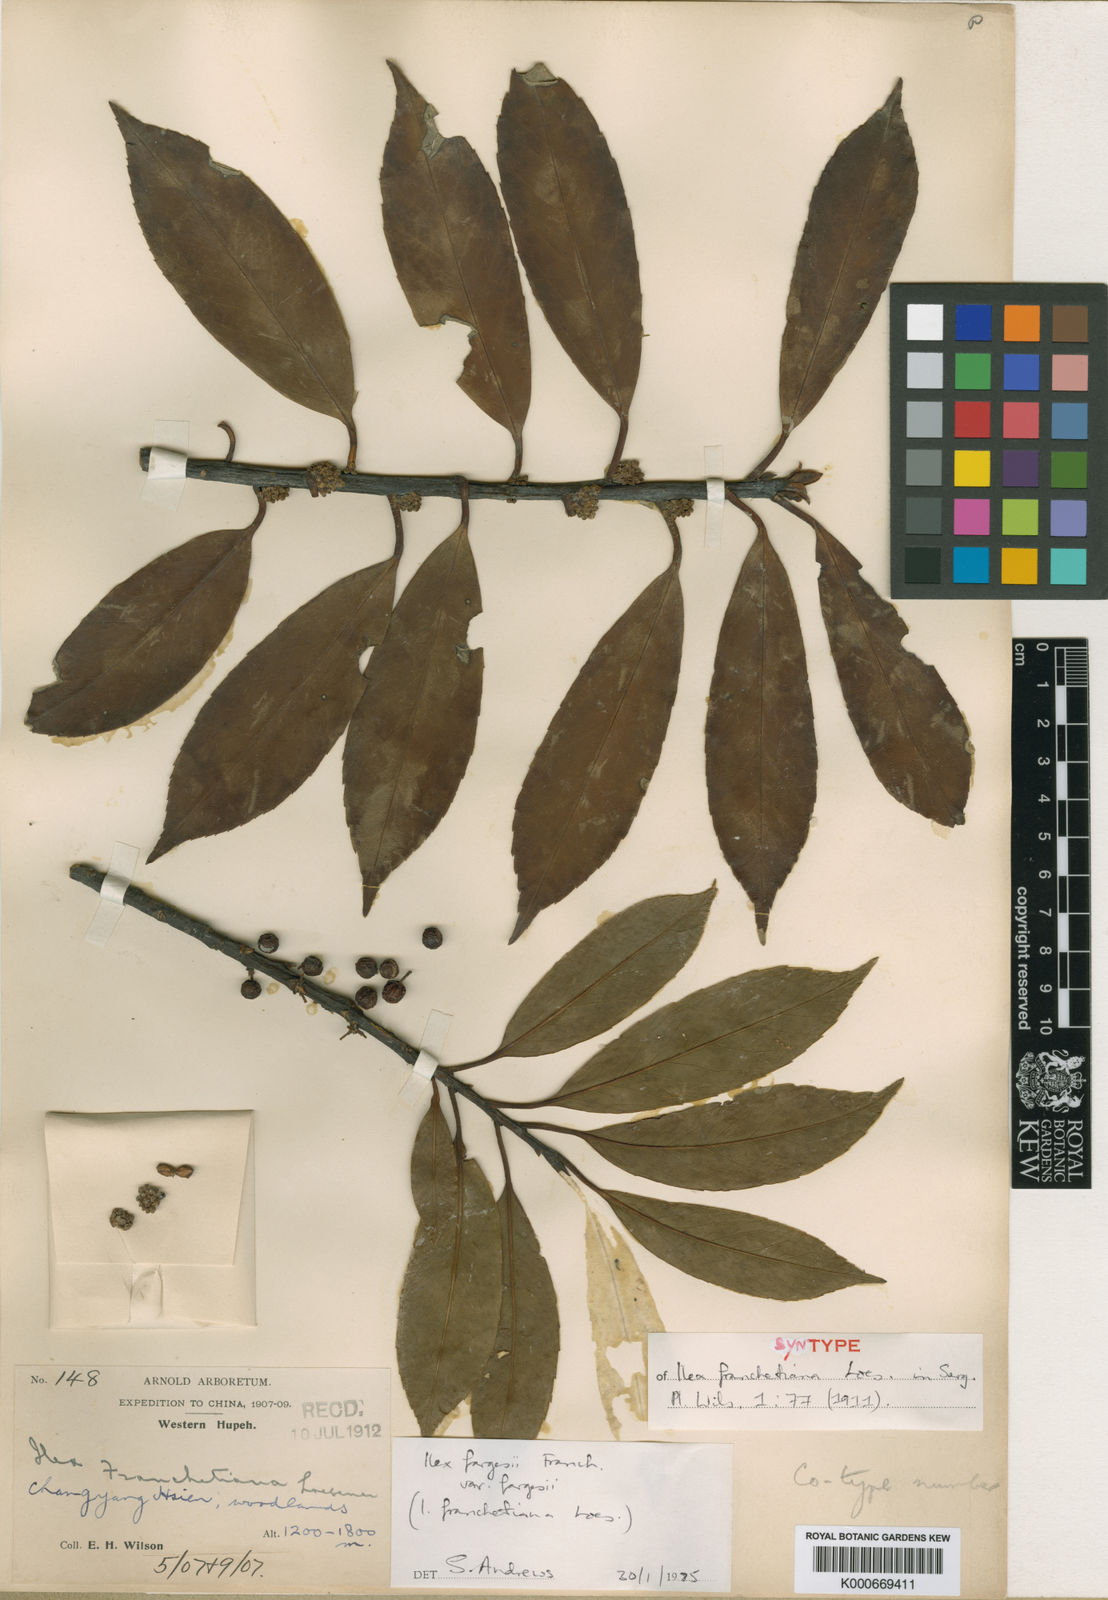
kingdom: Plantae
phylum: Tracheophyta
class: Magnoliopsida
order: Aquifoliales
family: Aquifoliaceae
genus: Ilex
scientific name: Ilex fargesii
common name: Farges’s holly
